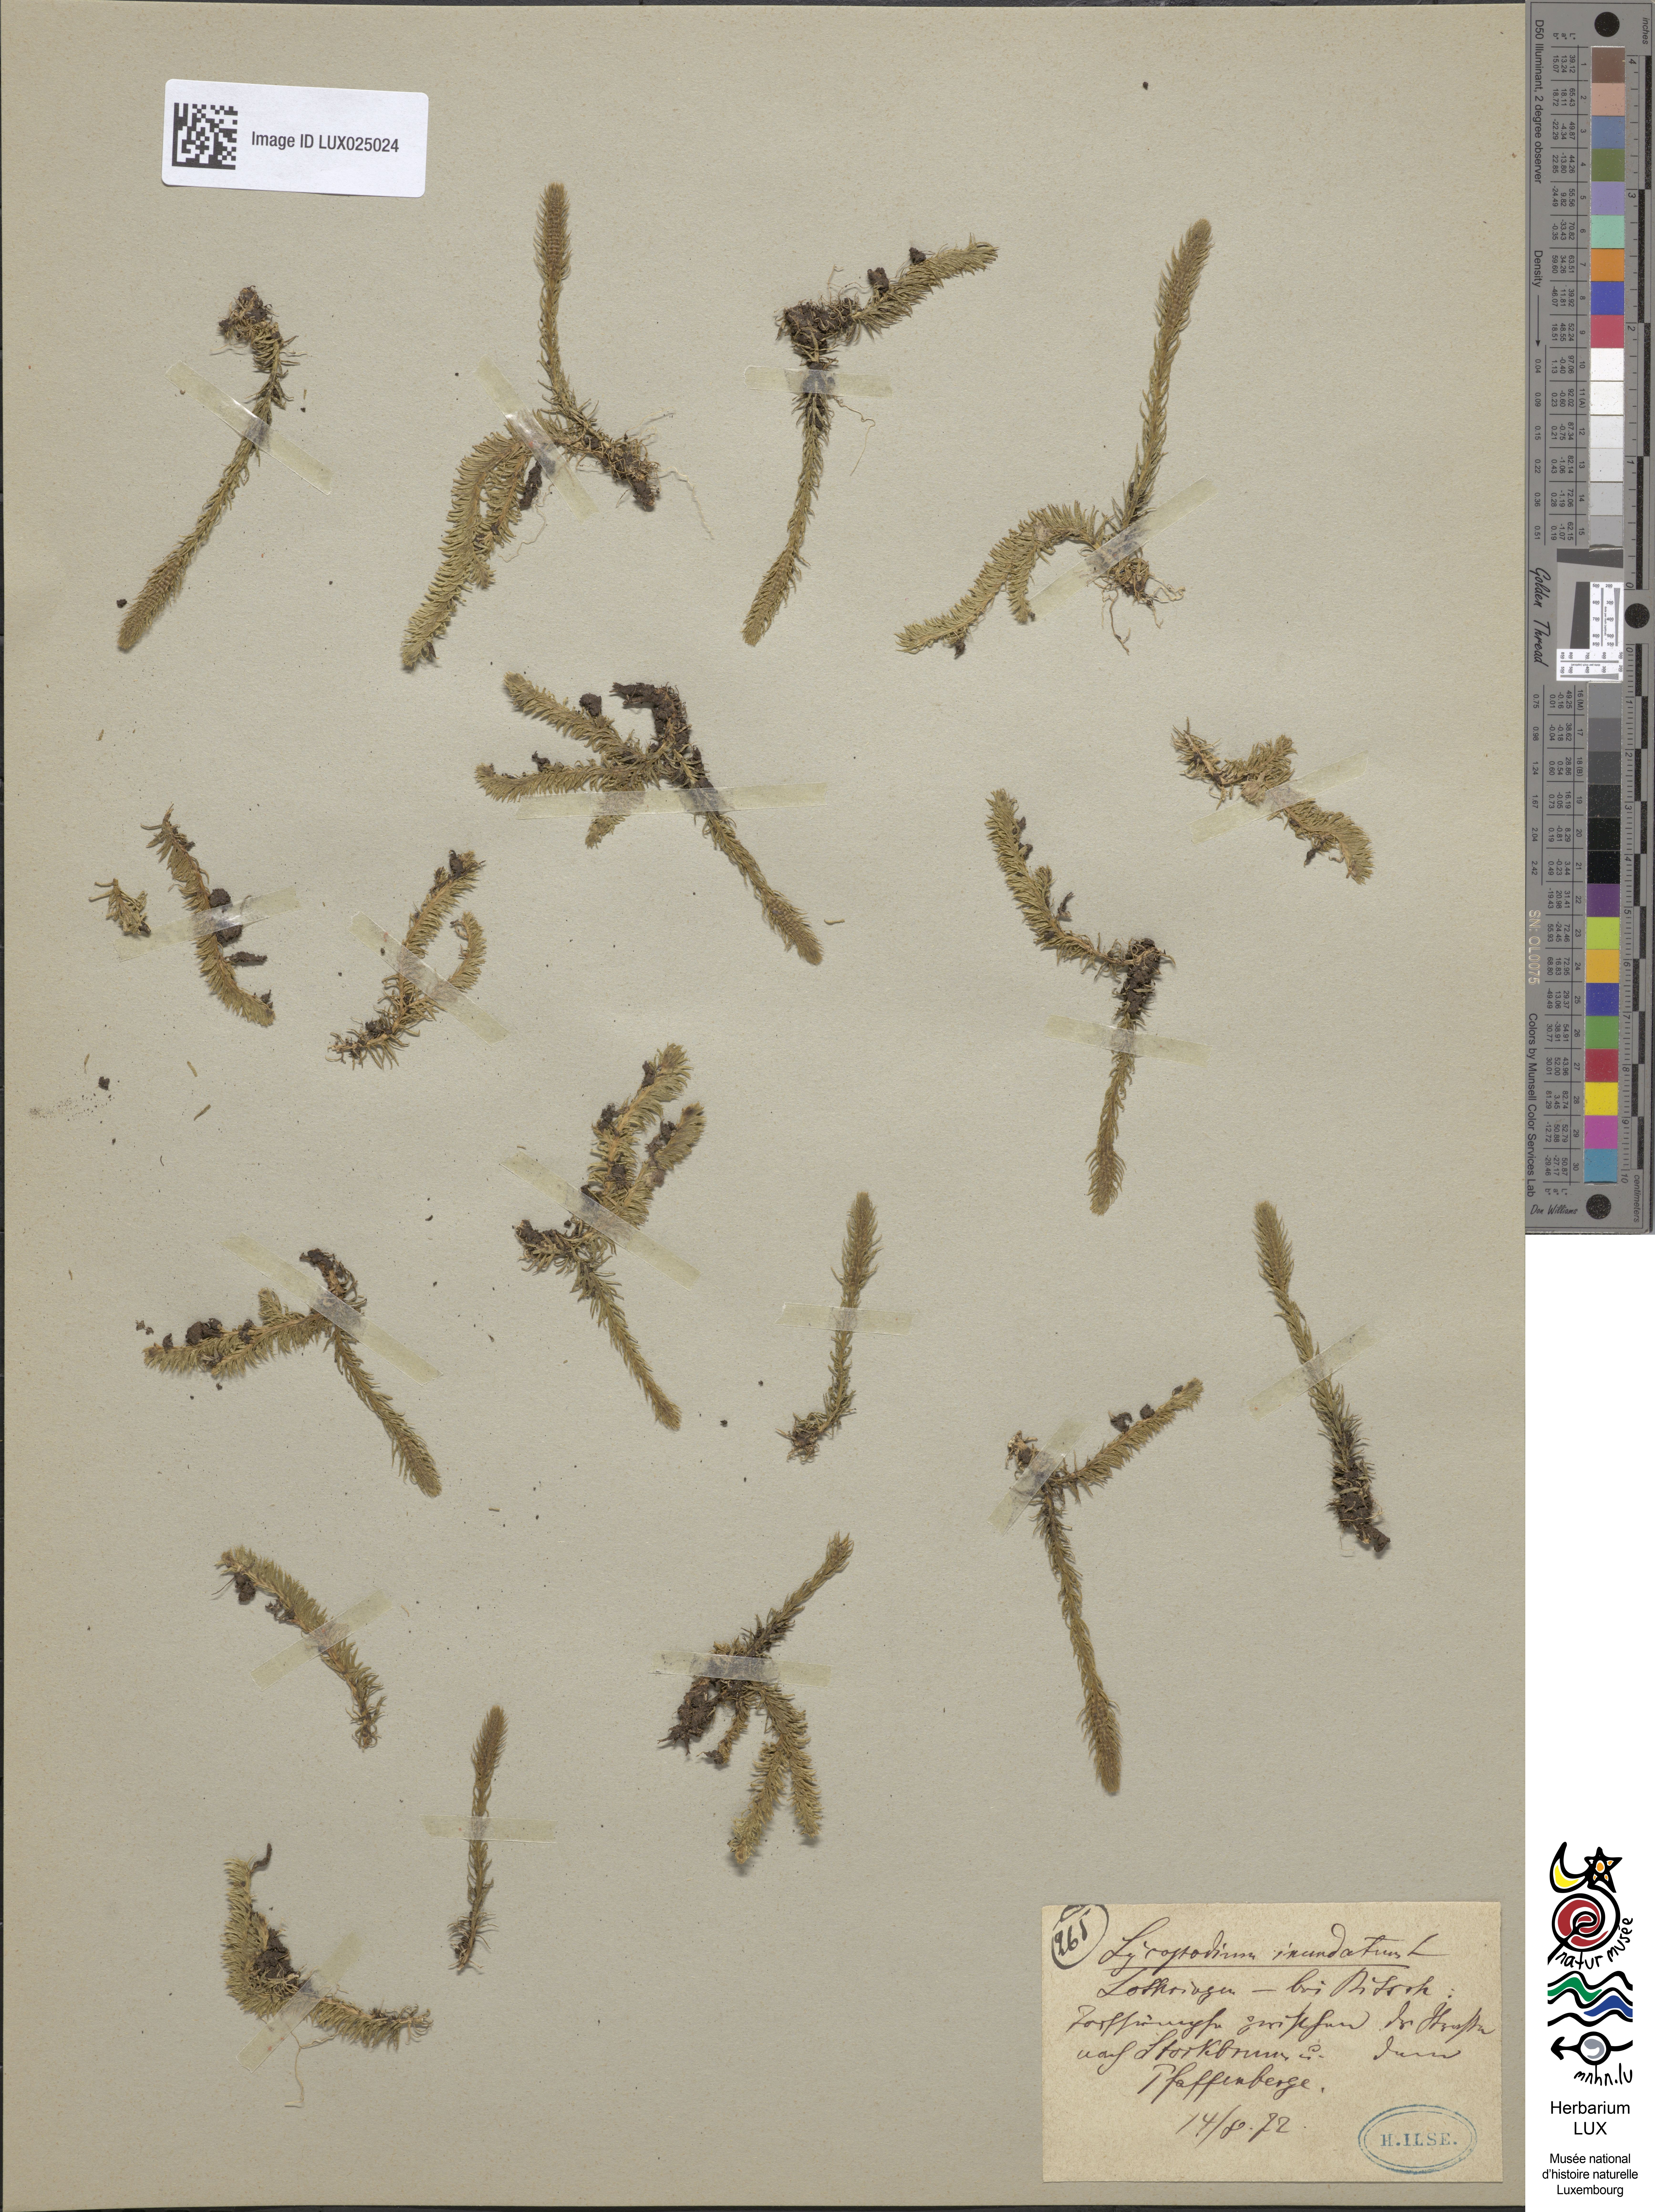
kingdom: Plantae
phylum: Tracheophyta
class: Lycopodiopsida
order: Lycopodiales
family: Lycopodiaceae
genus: Lycopodiella
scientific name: Lycopodiella inundata
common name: Marsh clubmoss
